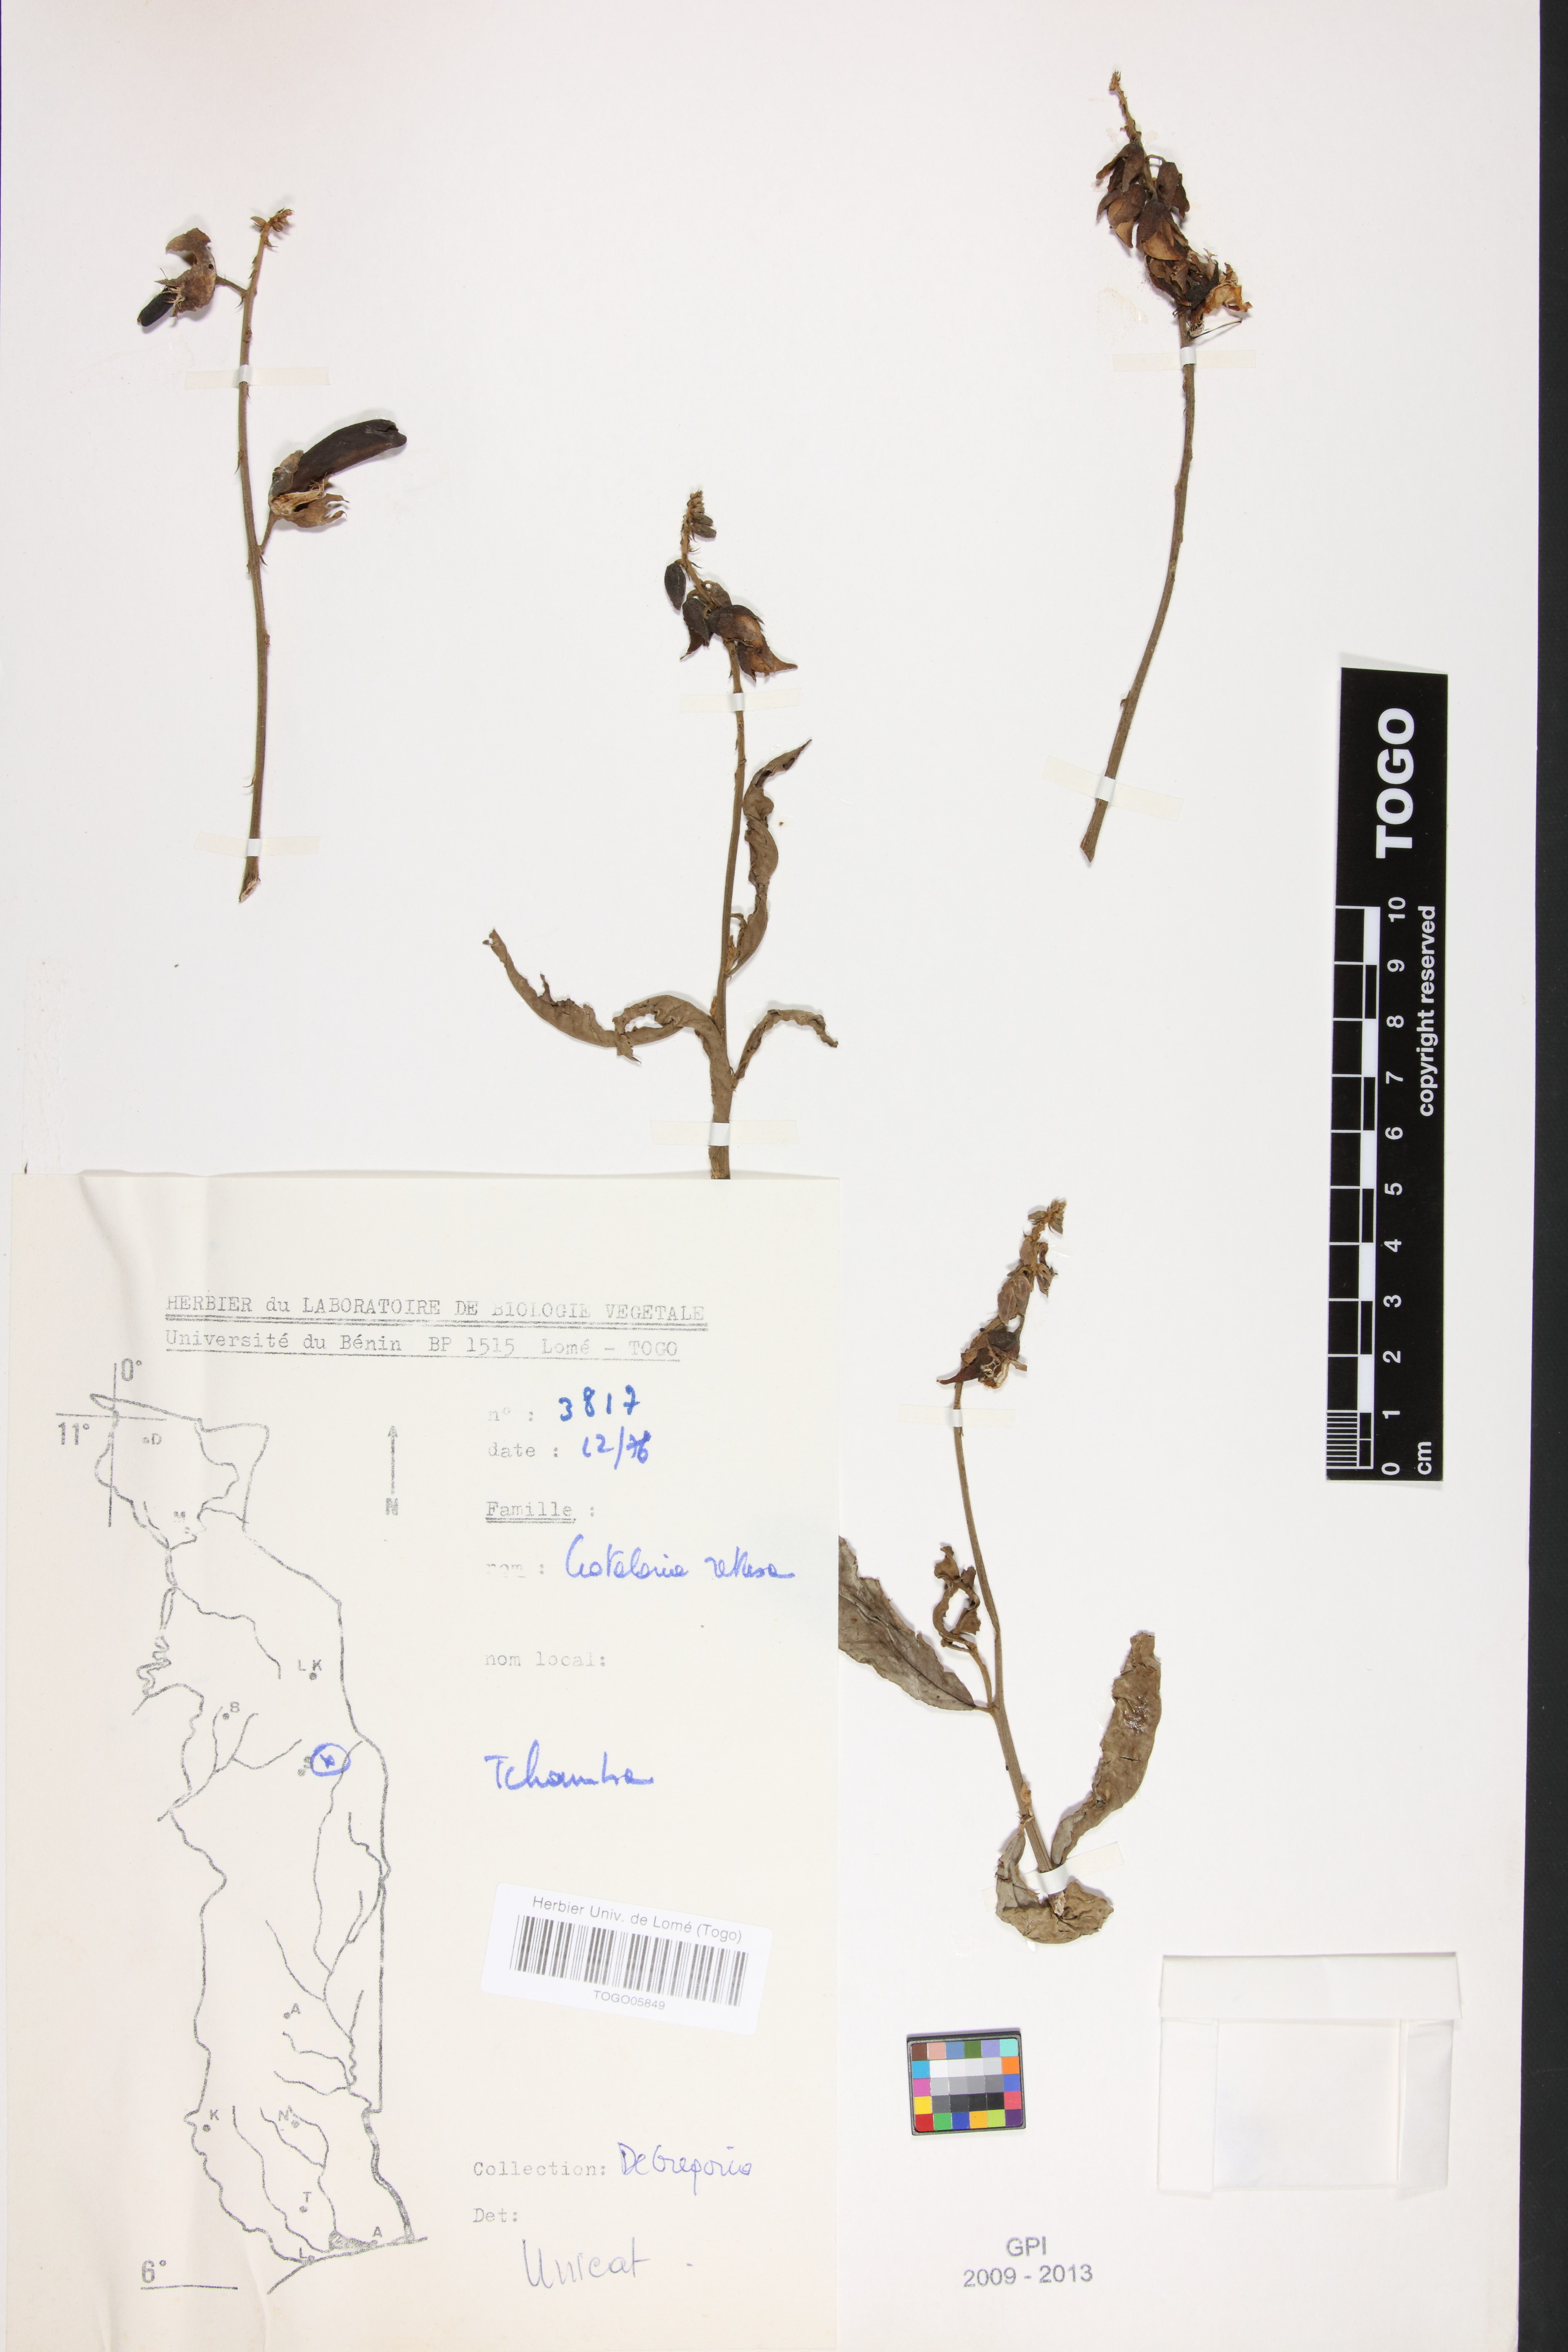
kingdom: Plantae
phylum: Tracheophyta
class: Magnoliopsida
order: Fabales
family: Fabaceae
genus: Crotalaria
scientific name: Crotalaria retusa
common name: Rattleweed
